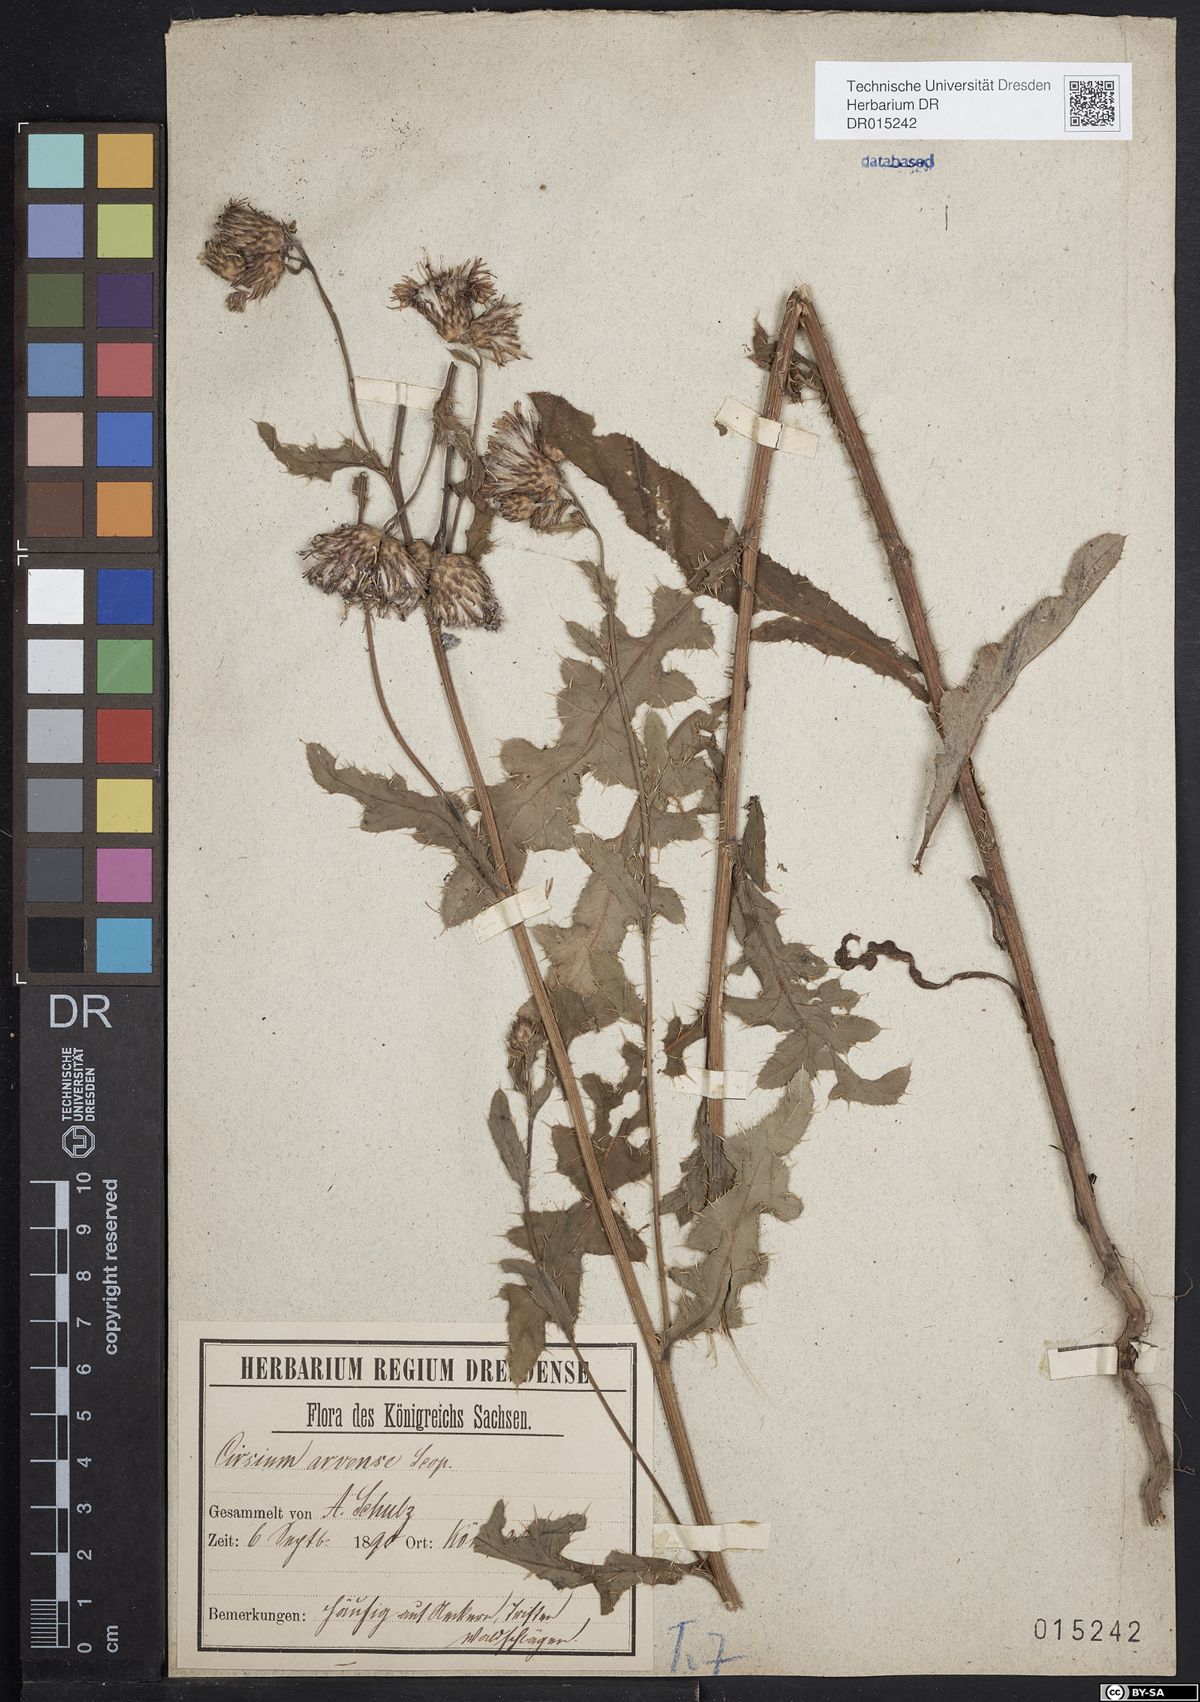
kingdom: Plantae
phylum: Tracheophyta
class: Magnoliopsida
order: Asterales
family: Asteraceae
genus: Cirsium
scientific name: Cirsium arvense
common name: Creeping thistle
